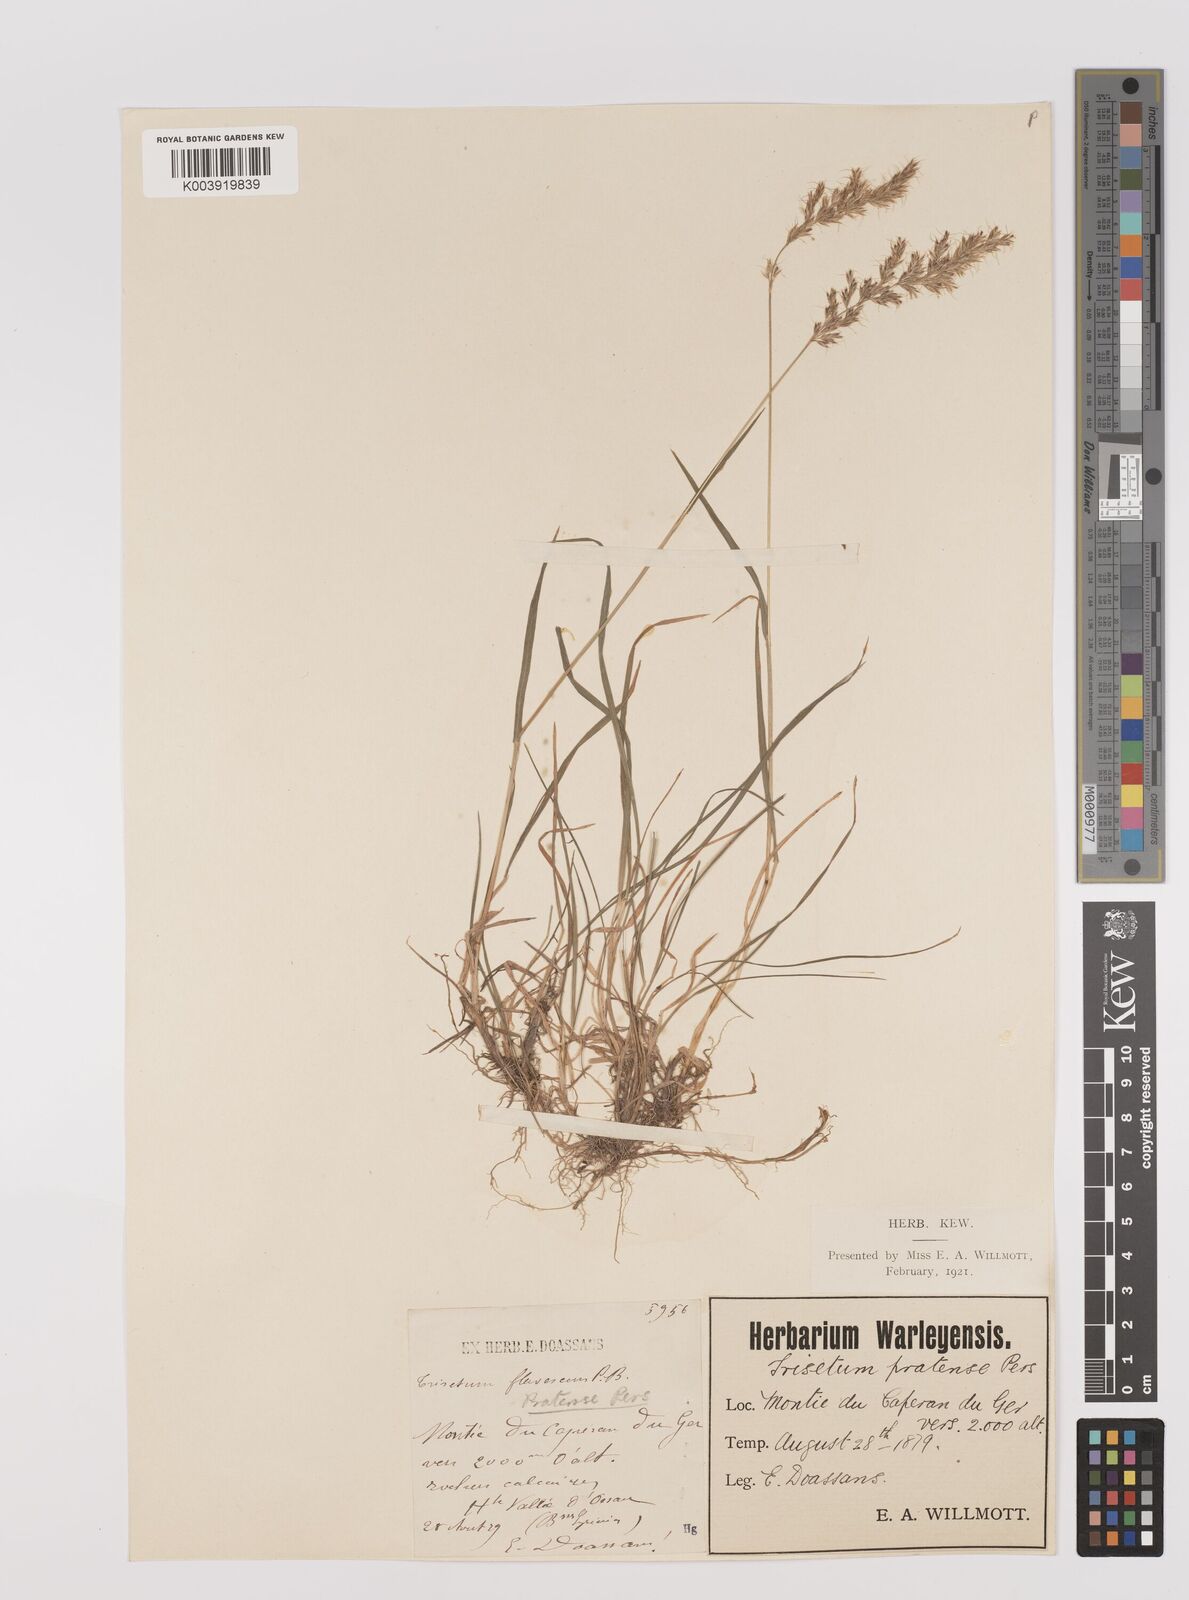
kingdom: Plantae
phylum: Tracheophyta
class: Liliopsida
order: Poales
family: Poaceae
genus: Trisetum
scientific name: Trisetum flavescens
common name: Yellow oat-grass
